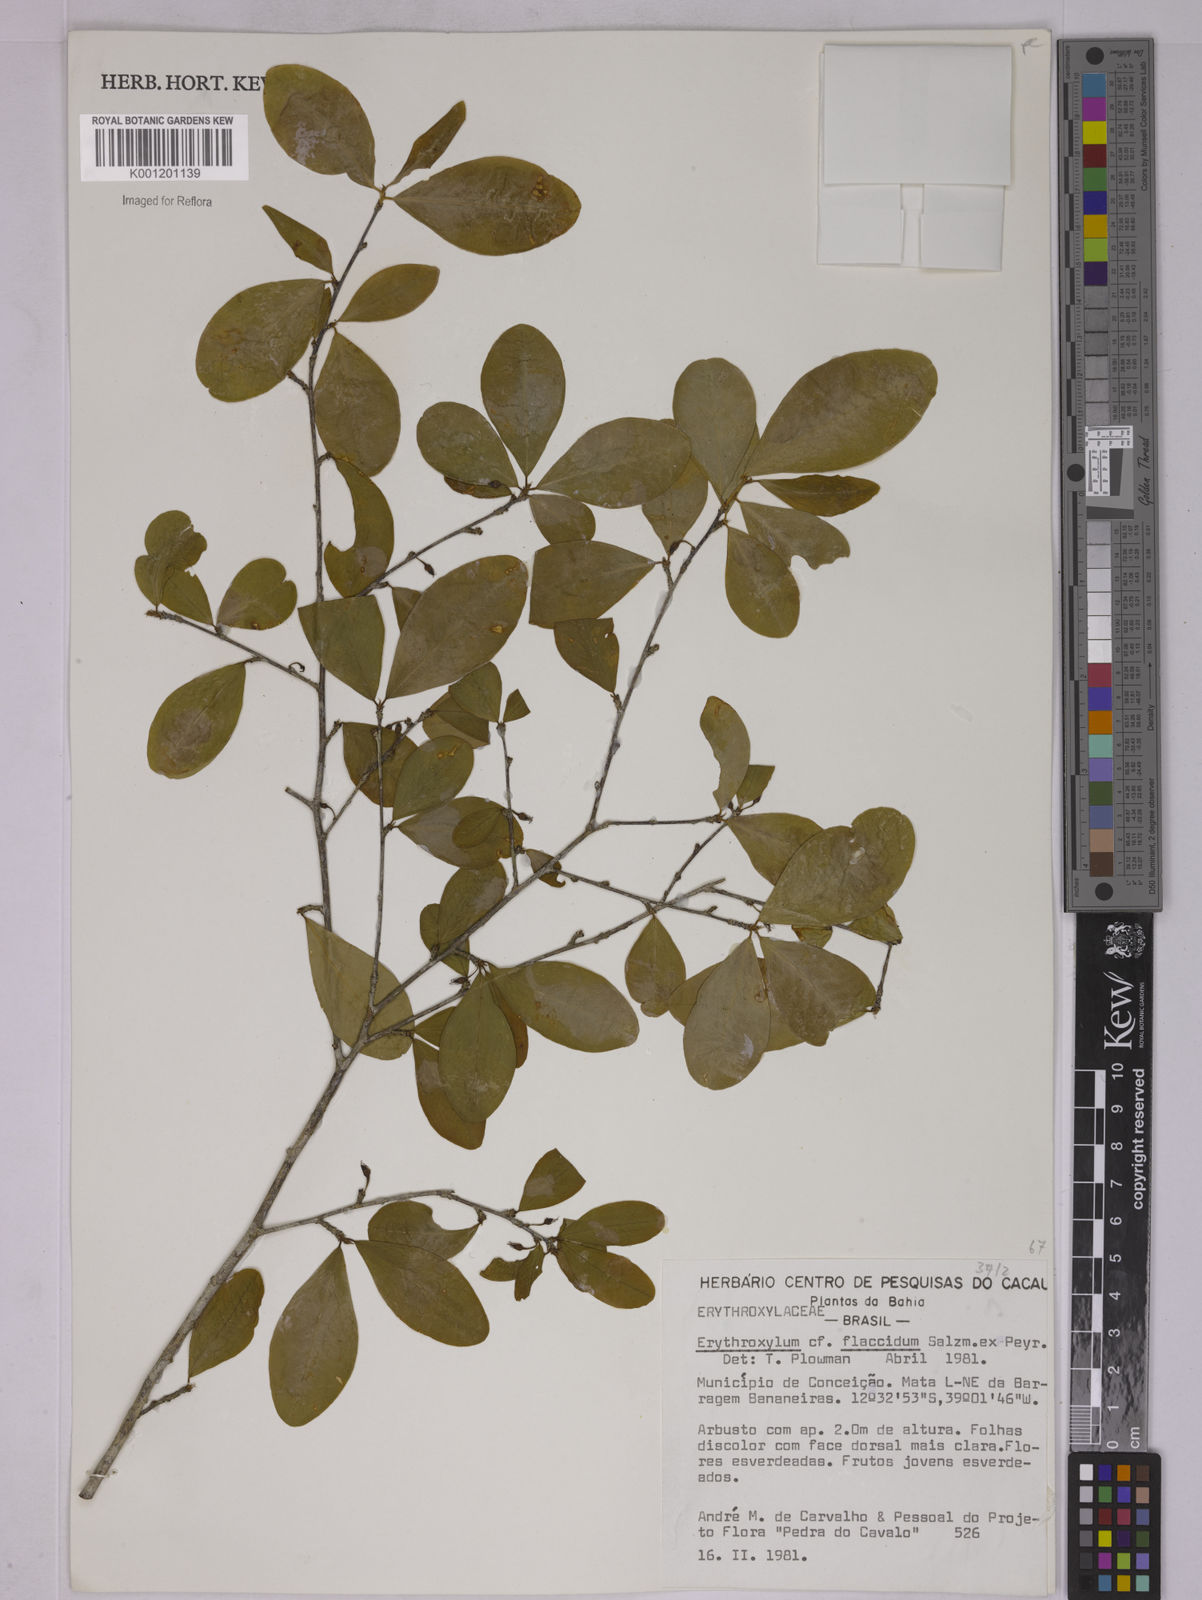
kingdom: Plantae
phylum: Tracheophyta
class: Magnoliopsida
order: Malpighiales
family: Erythroxylaceae
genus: Erythroxylum
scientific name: Erythroxylum flaccidum
